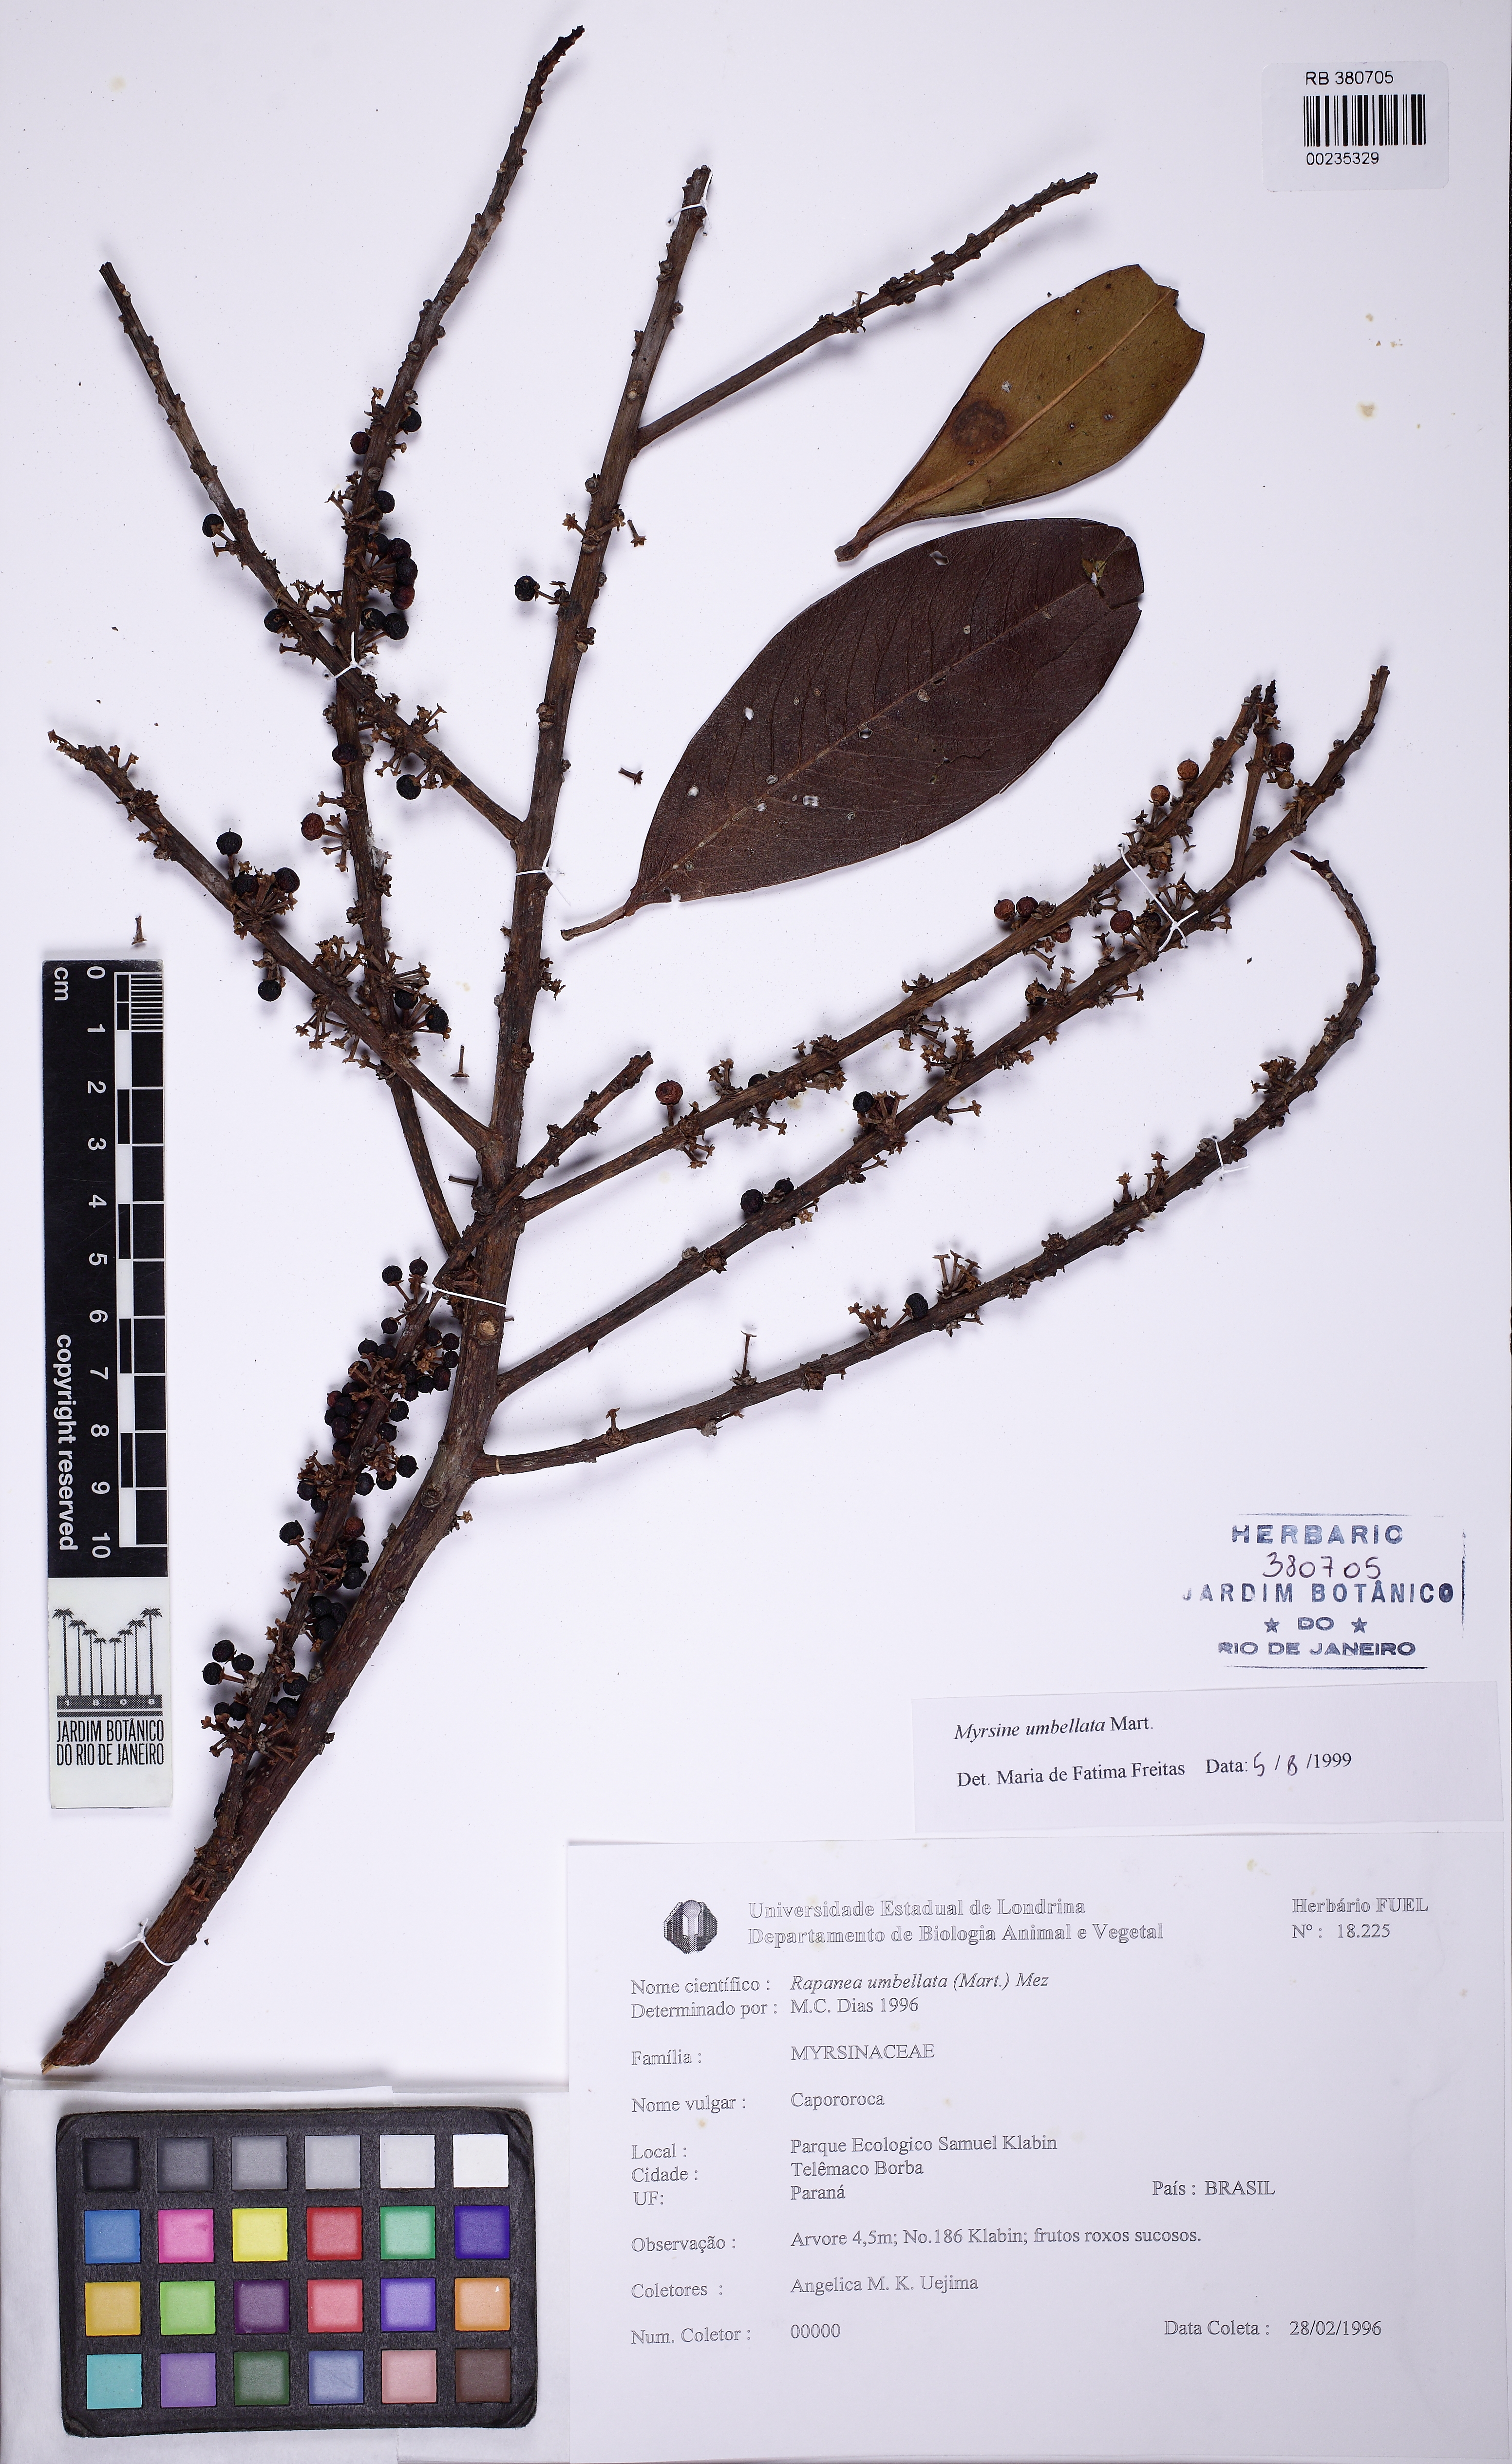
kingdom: Plantae
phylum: Tracheophyta
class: Magnoliopsida
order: Ericales
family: Primulaceae
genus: Myrsine
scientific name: Myrsine umbellata
